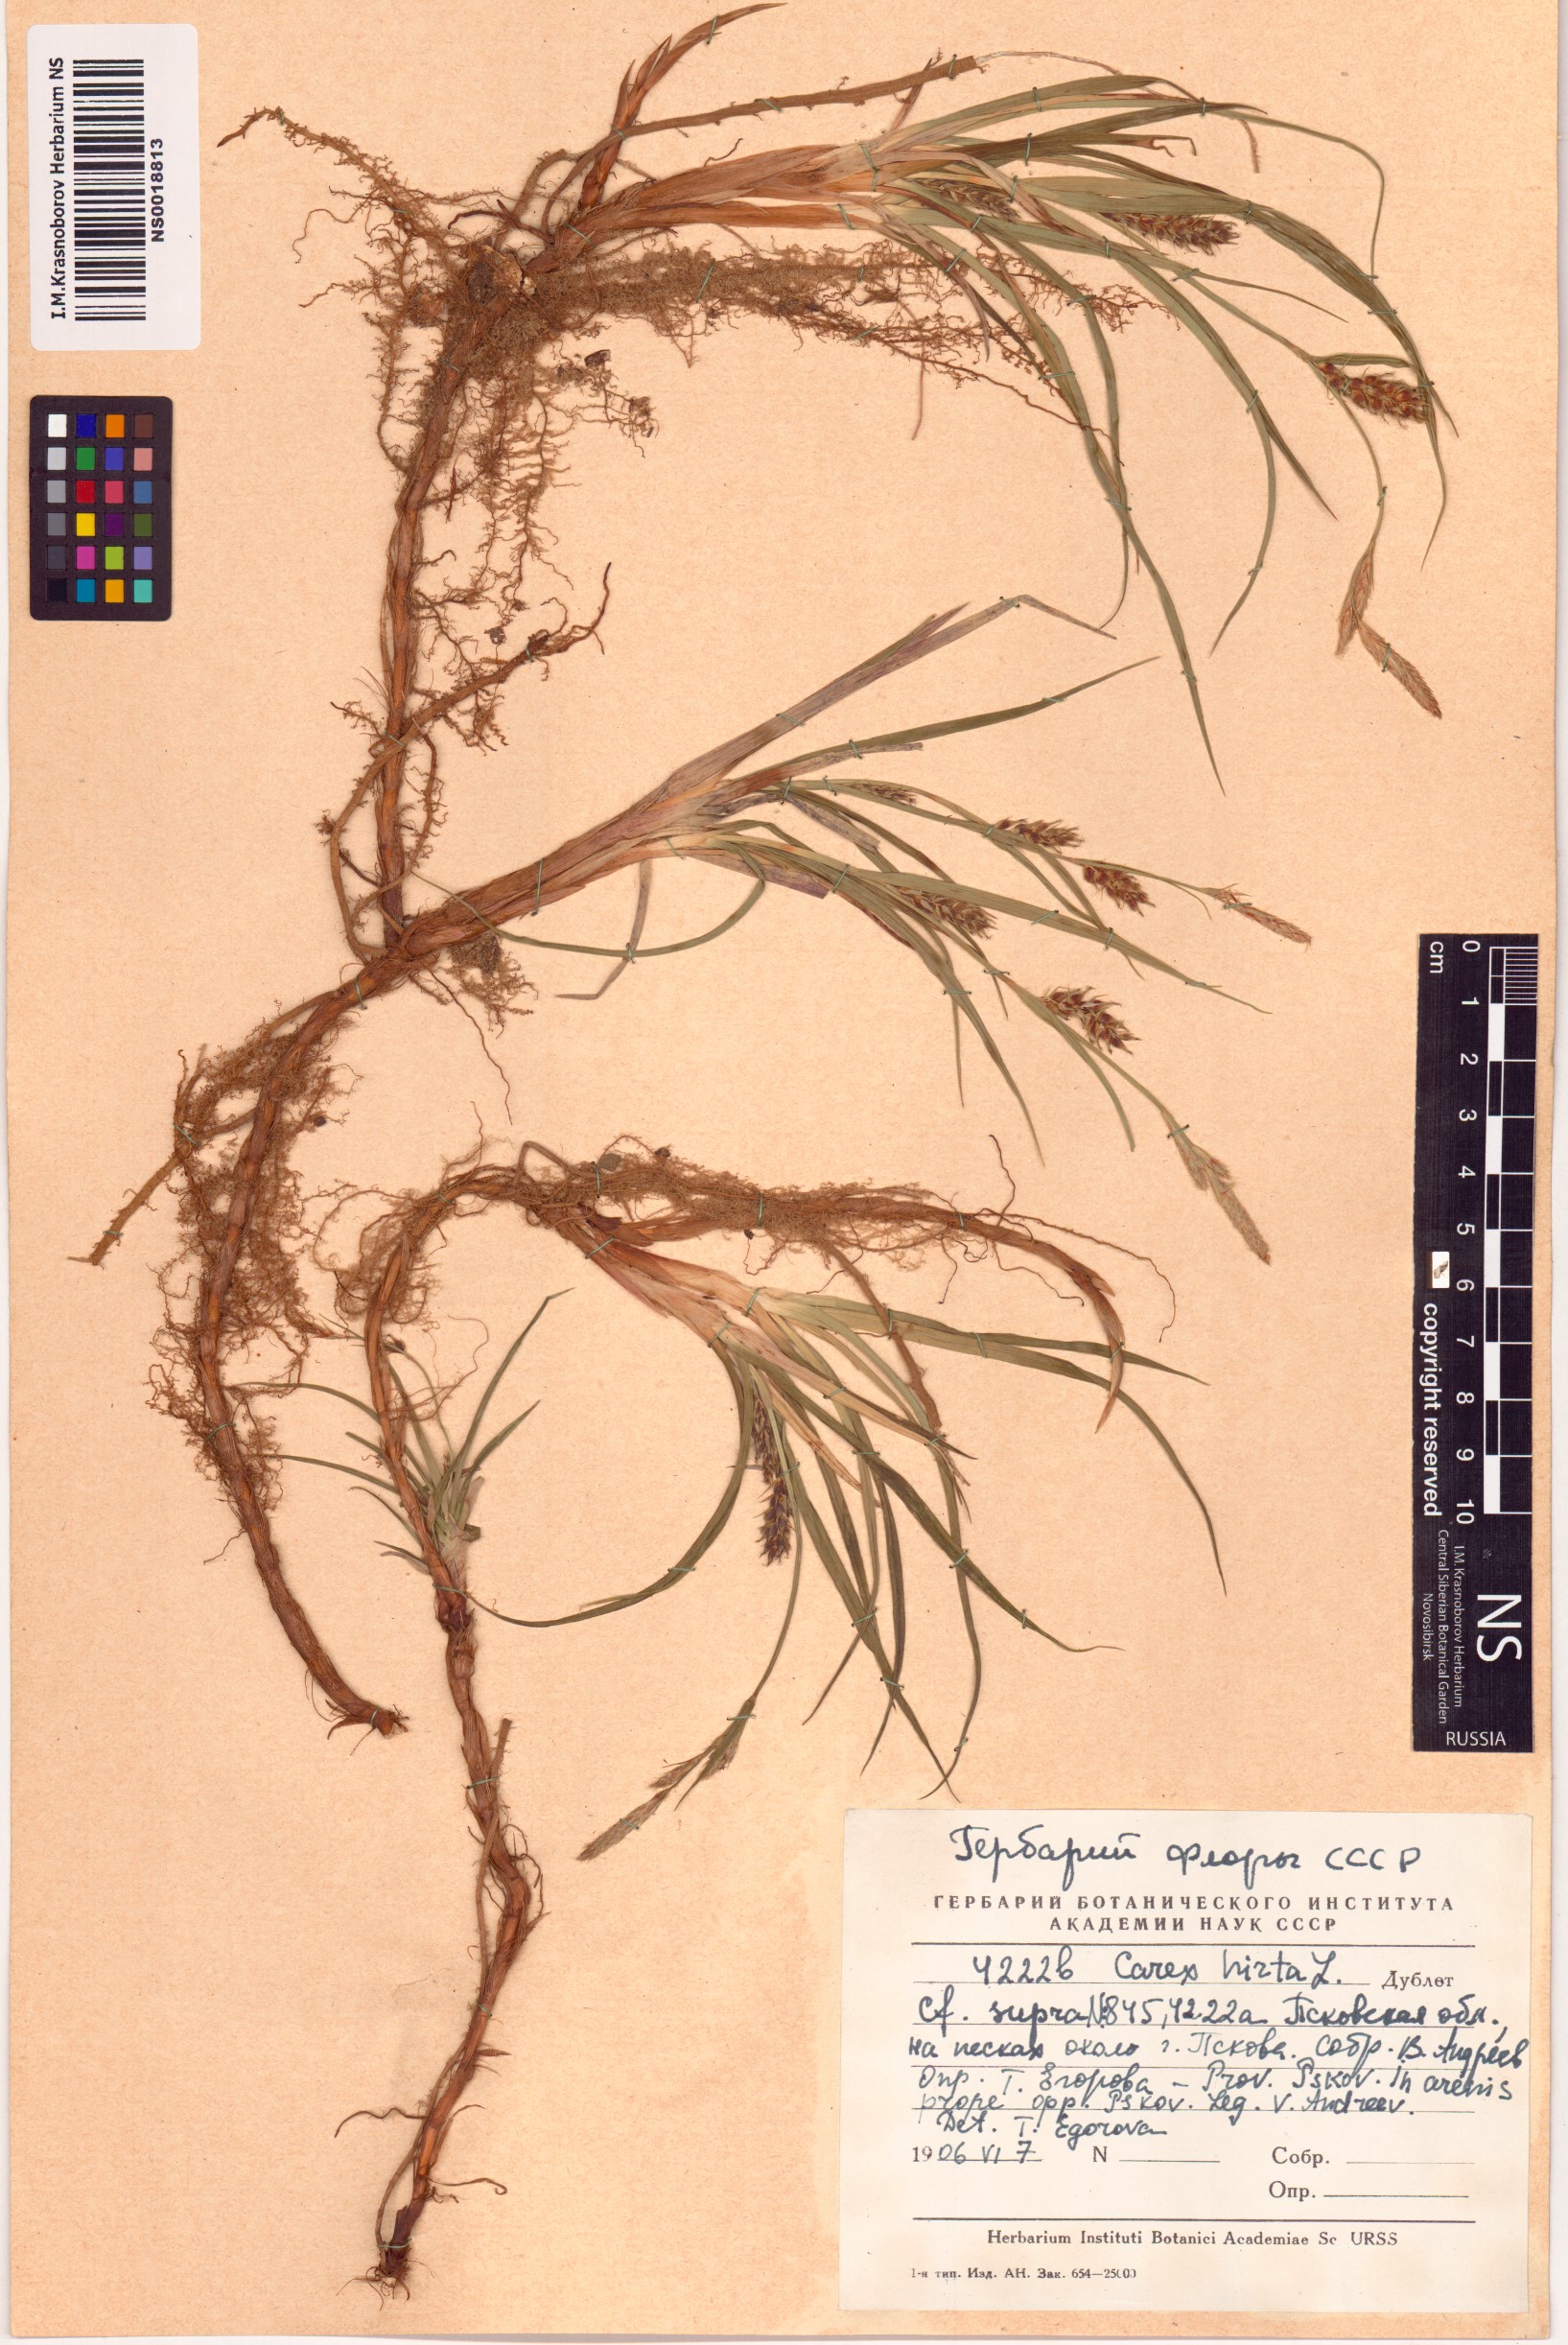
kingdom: Plantae
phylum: Tracheophyta
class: Liliopsida
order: Poales
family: Cyperaceae
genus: Carex
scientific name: Carex hirta
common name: Hairy sedge
